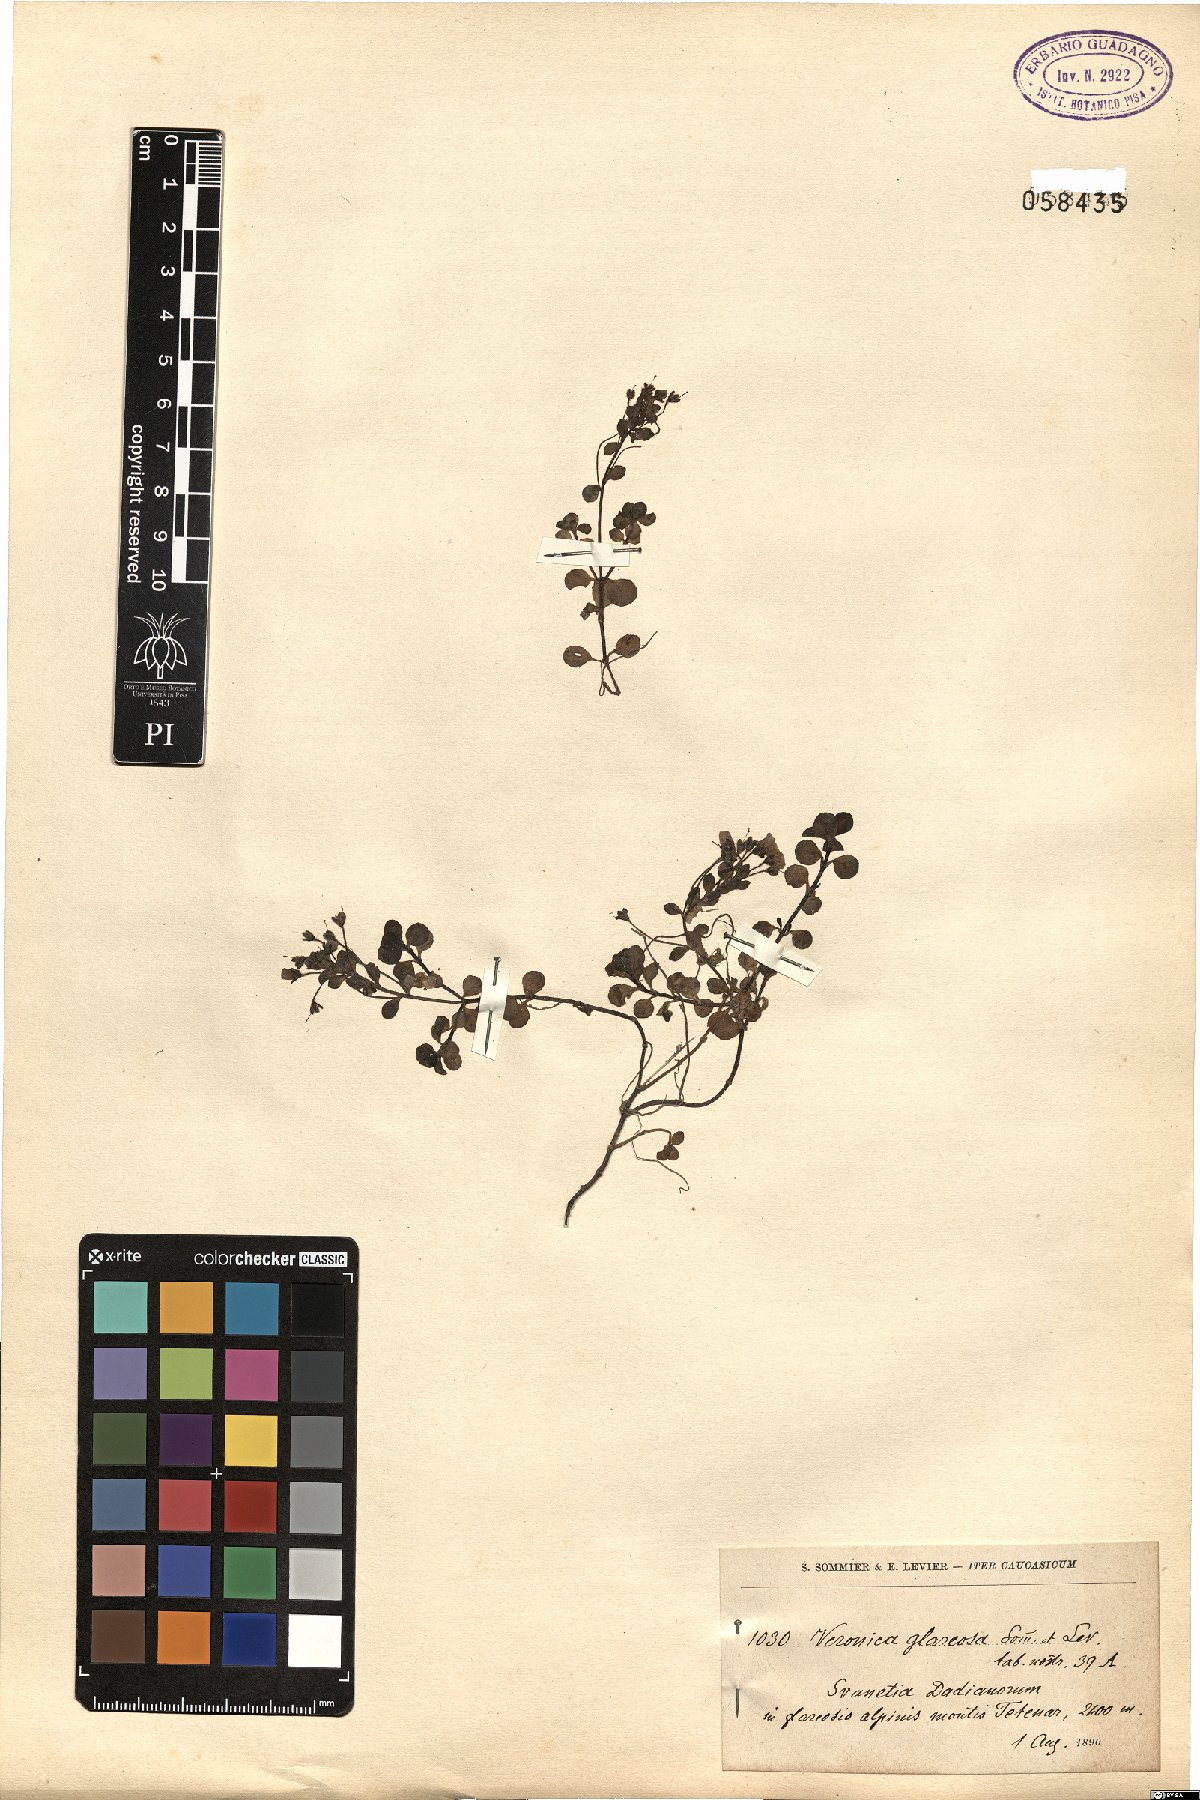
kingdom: Plantae
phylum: Tracheophyta
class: Magnoliopsida
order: Lamiales
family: Plantaginaceae
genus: Veronica
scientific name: Veronica telephiifolia
